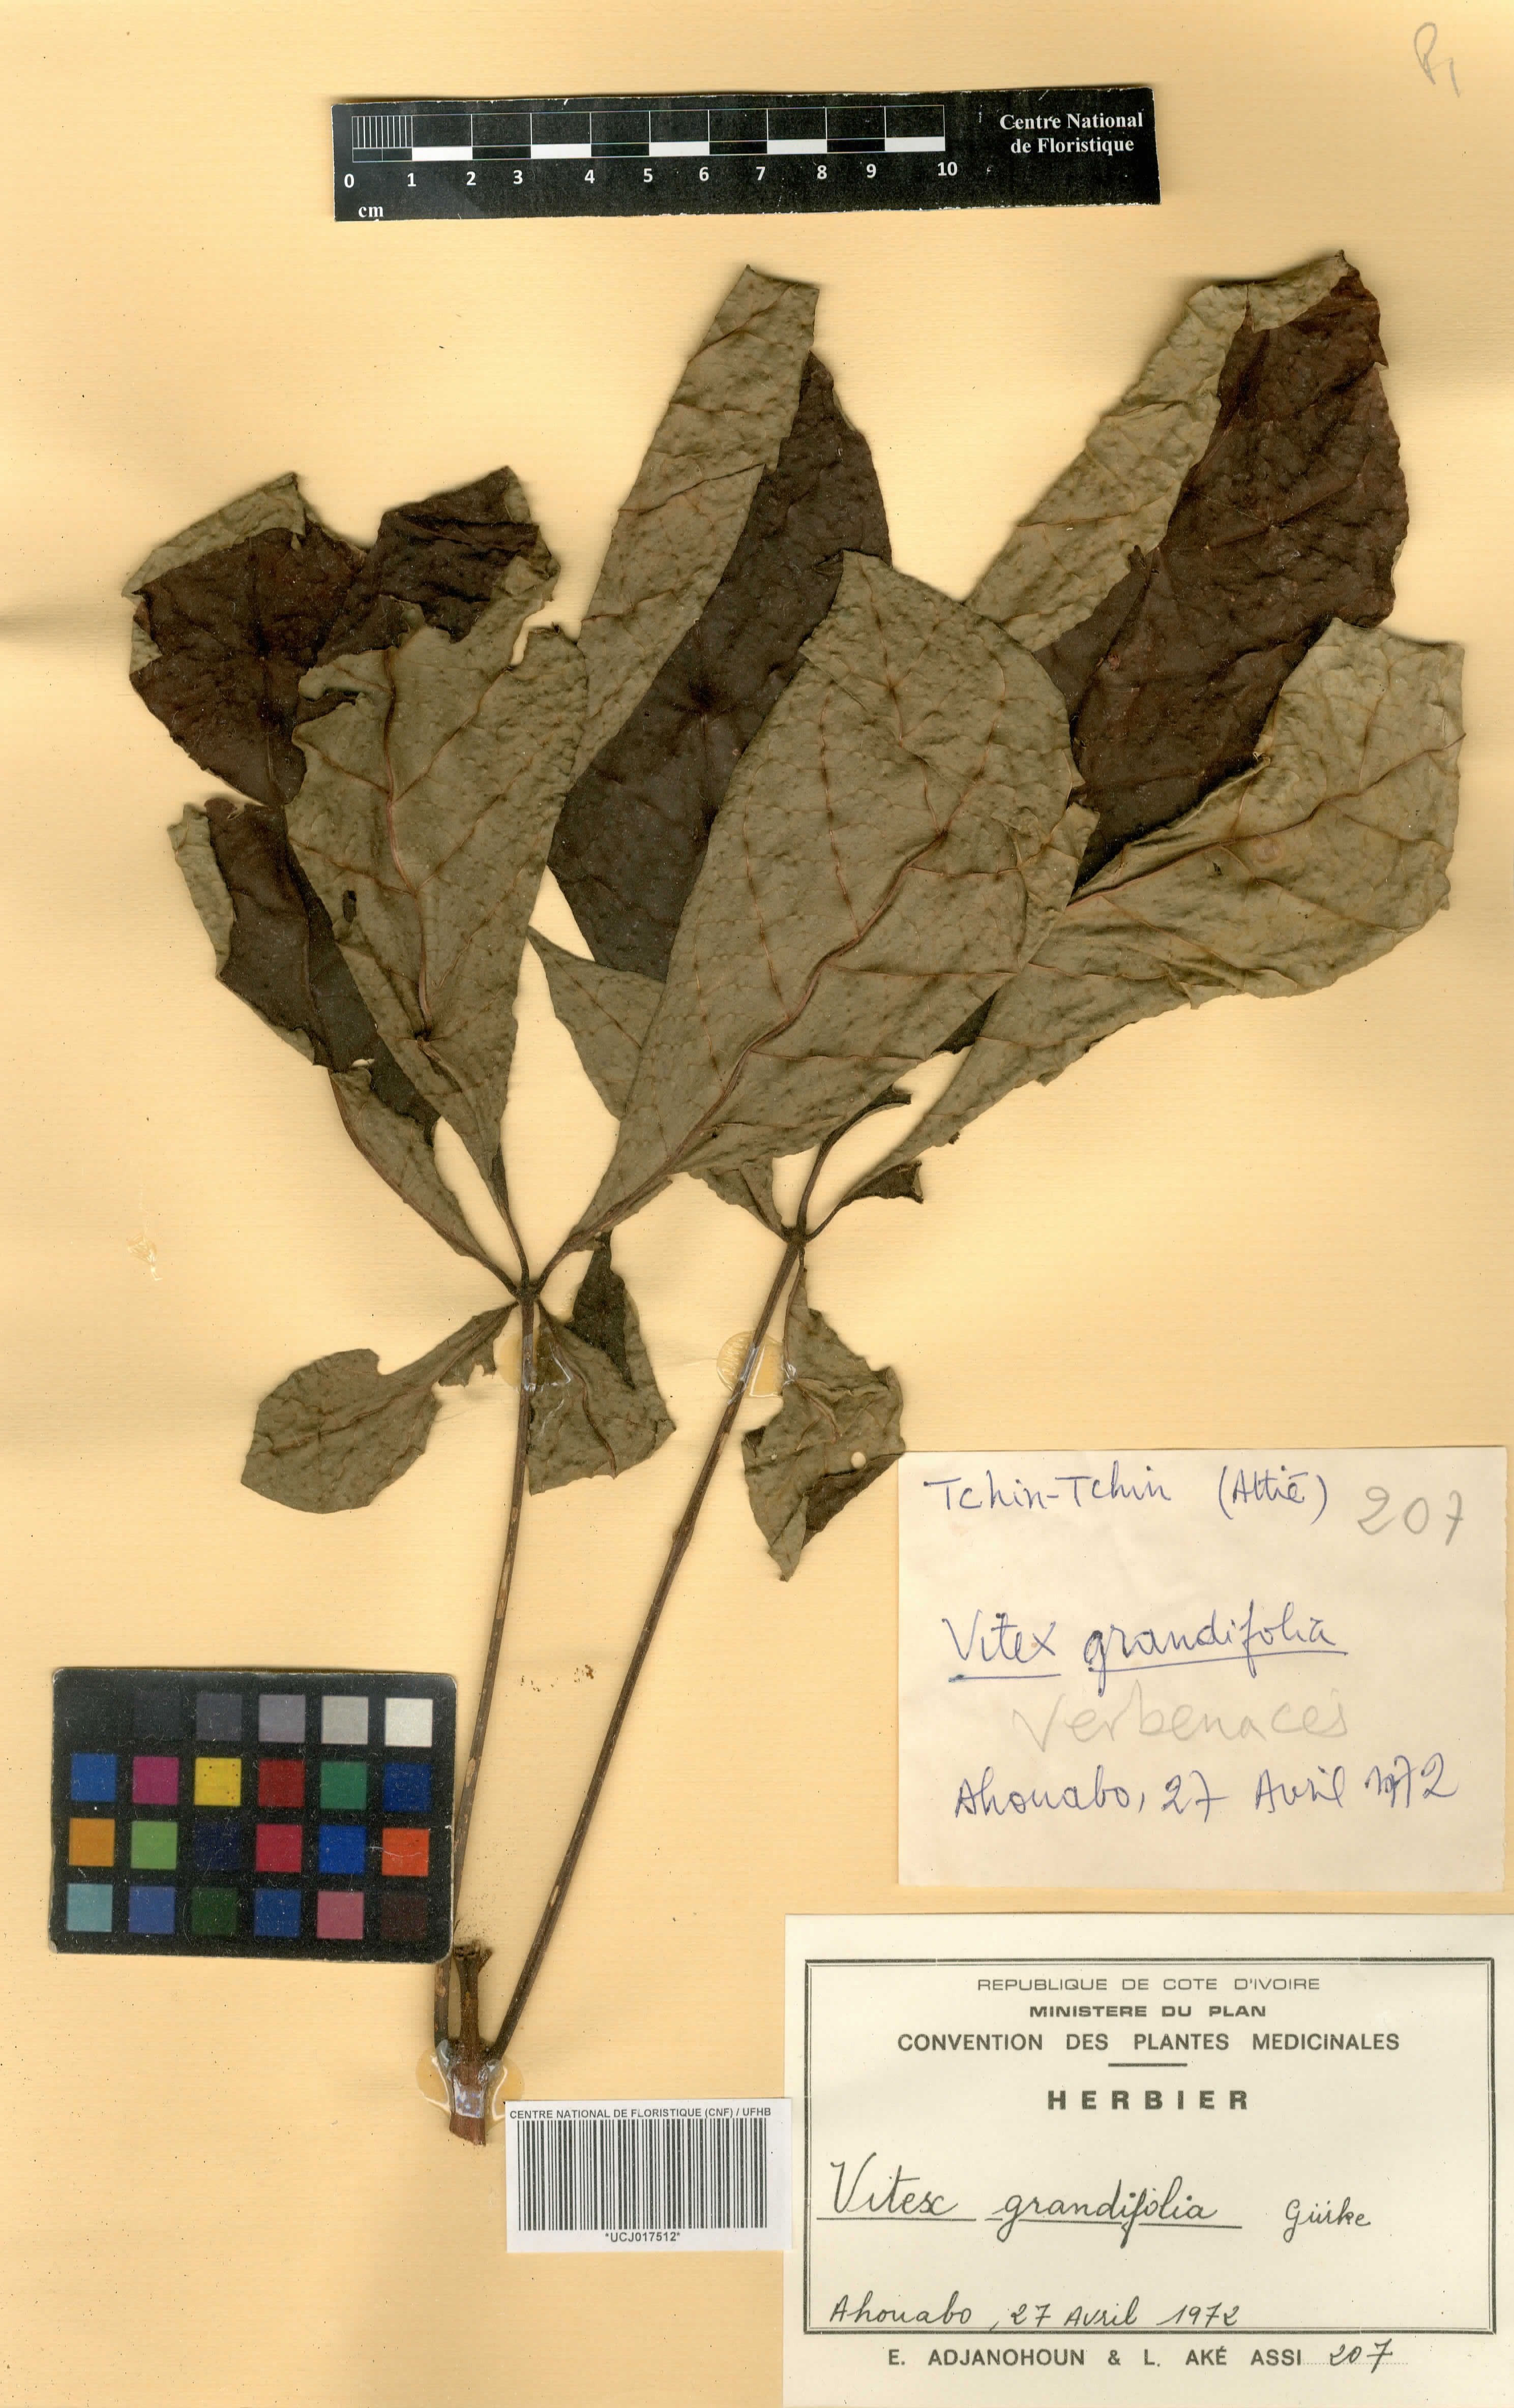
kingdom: Plantae
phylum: Tracheophyta
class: Magnoliopsida
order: Lamiales
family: Lamiaceae
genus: Vitex
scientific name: Vitex grandifolia
